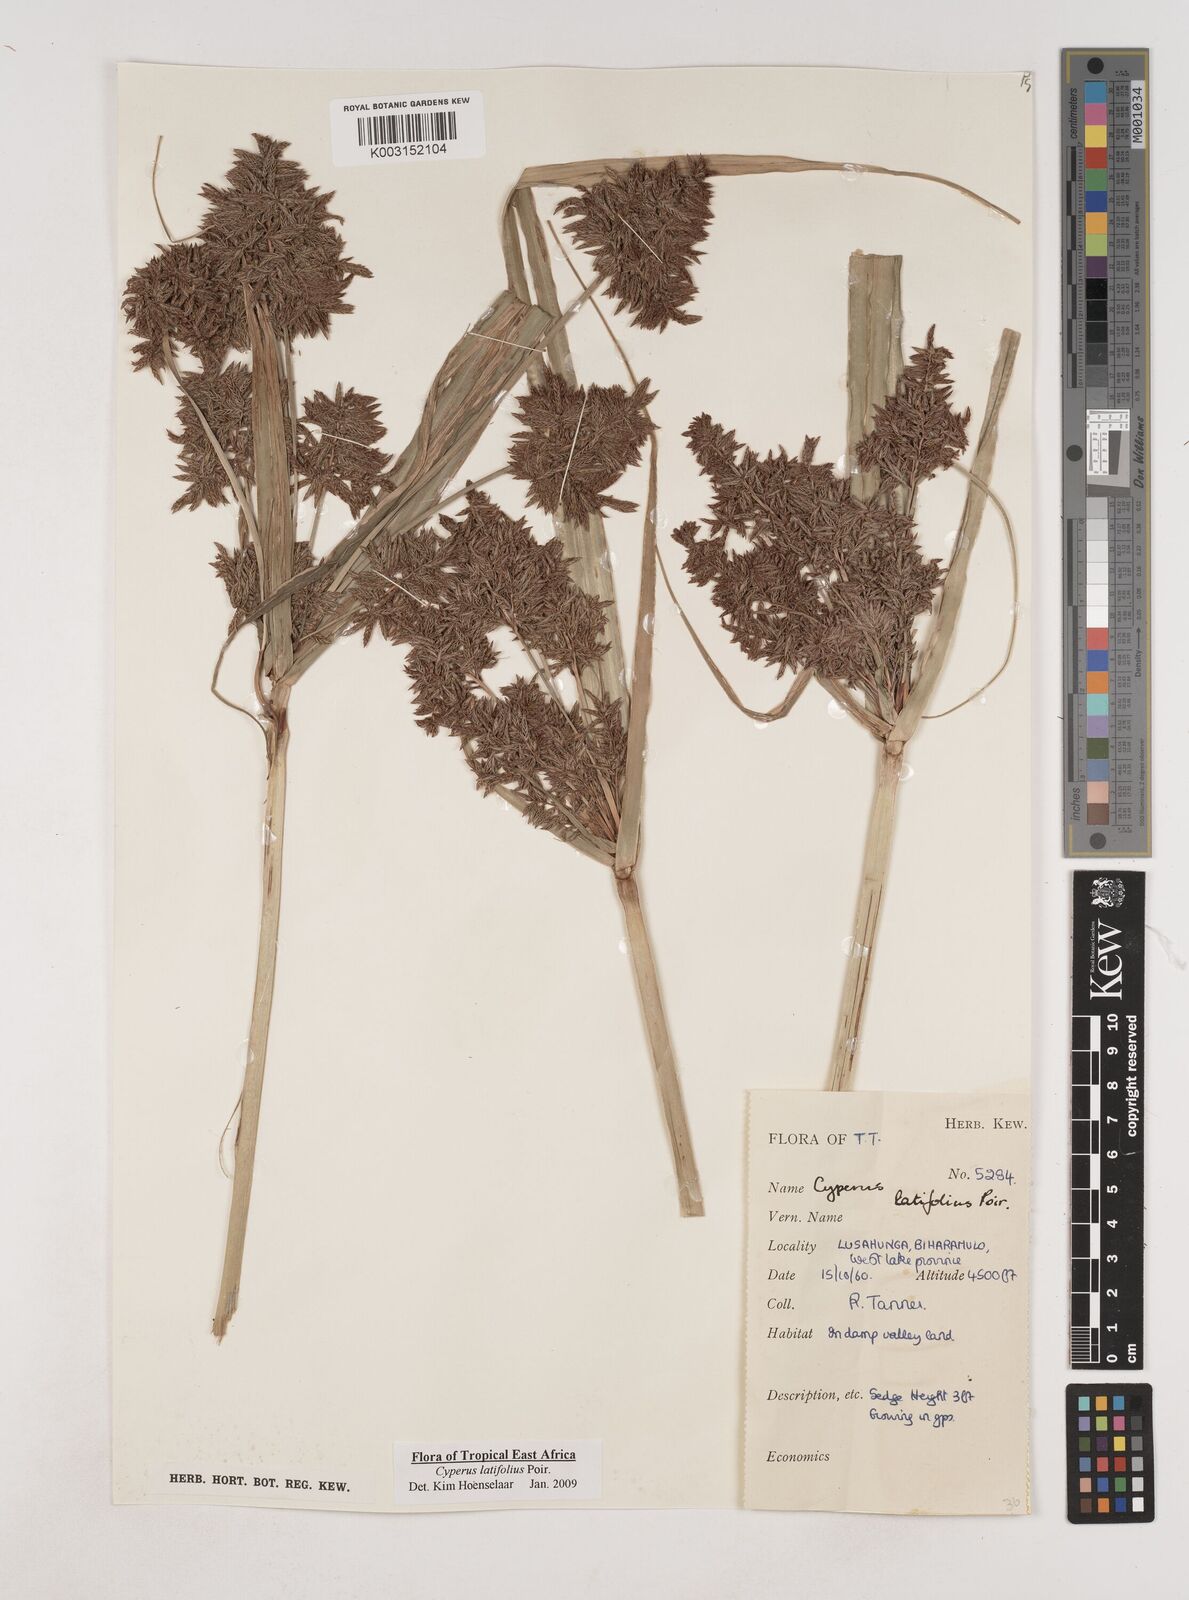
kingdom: Plantae
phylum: Tracheophyta
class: Liliopsida
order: Poales
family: Cyperaceae
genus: Cyperus
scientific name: Cyperus latifolius
